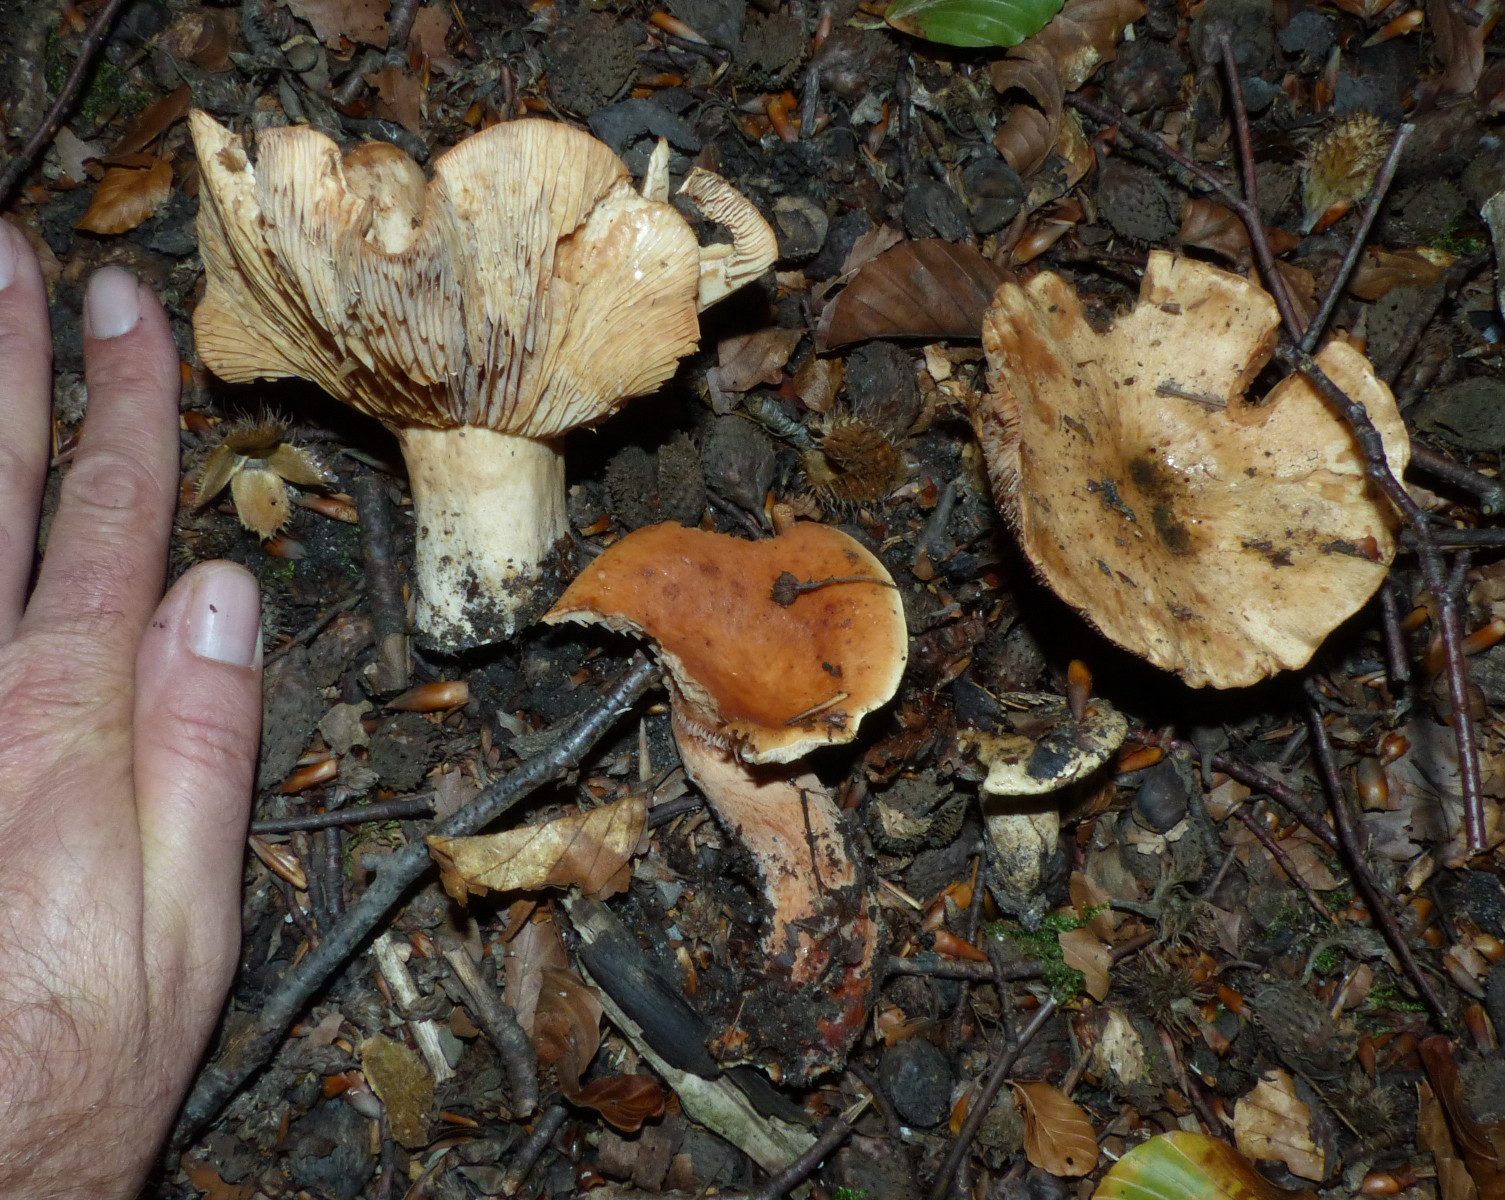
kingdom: Fungi
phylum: Basidiomycota
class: Agaricomycetes
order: Russulales
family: Russulaceae
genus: Lactarius
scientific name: Lactarius fulvissimus
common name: ræve-mælkehat
